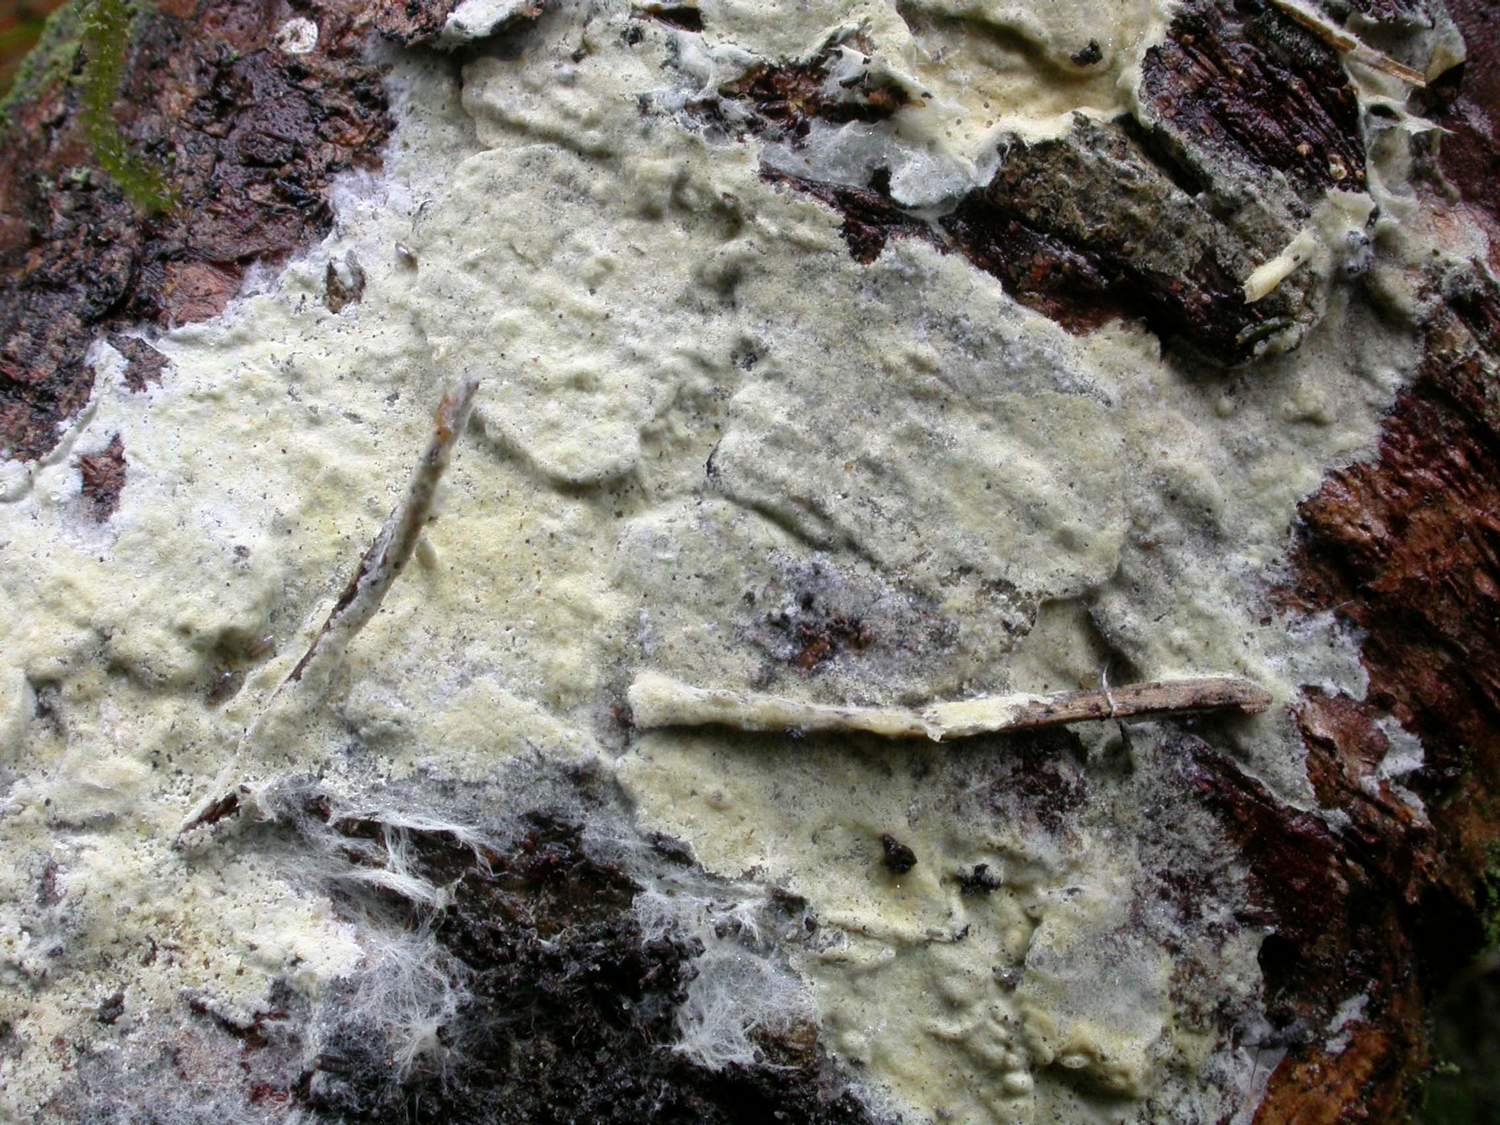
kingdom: Fungi
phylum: Basidiomycota
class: Agaricomycetes
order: Atheliales
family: Atheliaceae
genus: Amphinema
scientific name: Amphinema byssoides
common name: almindelig rodhinde
